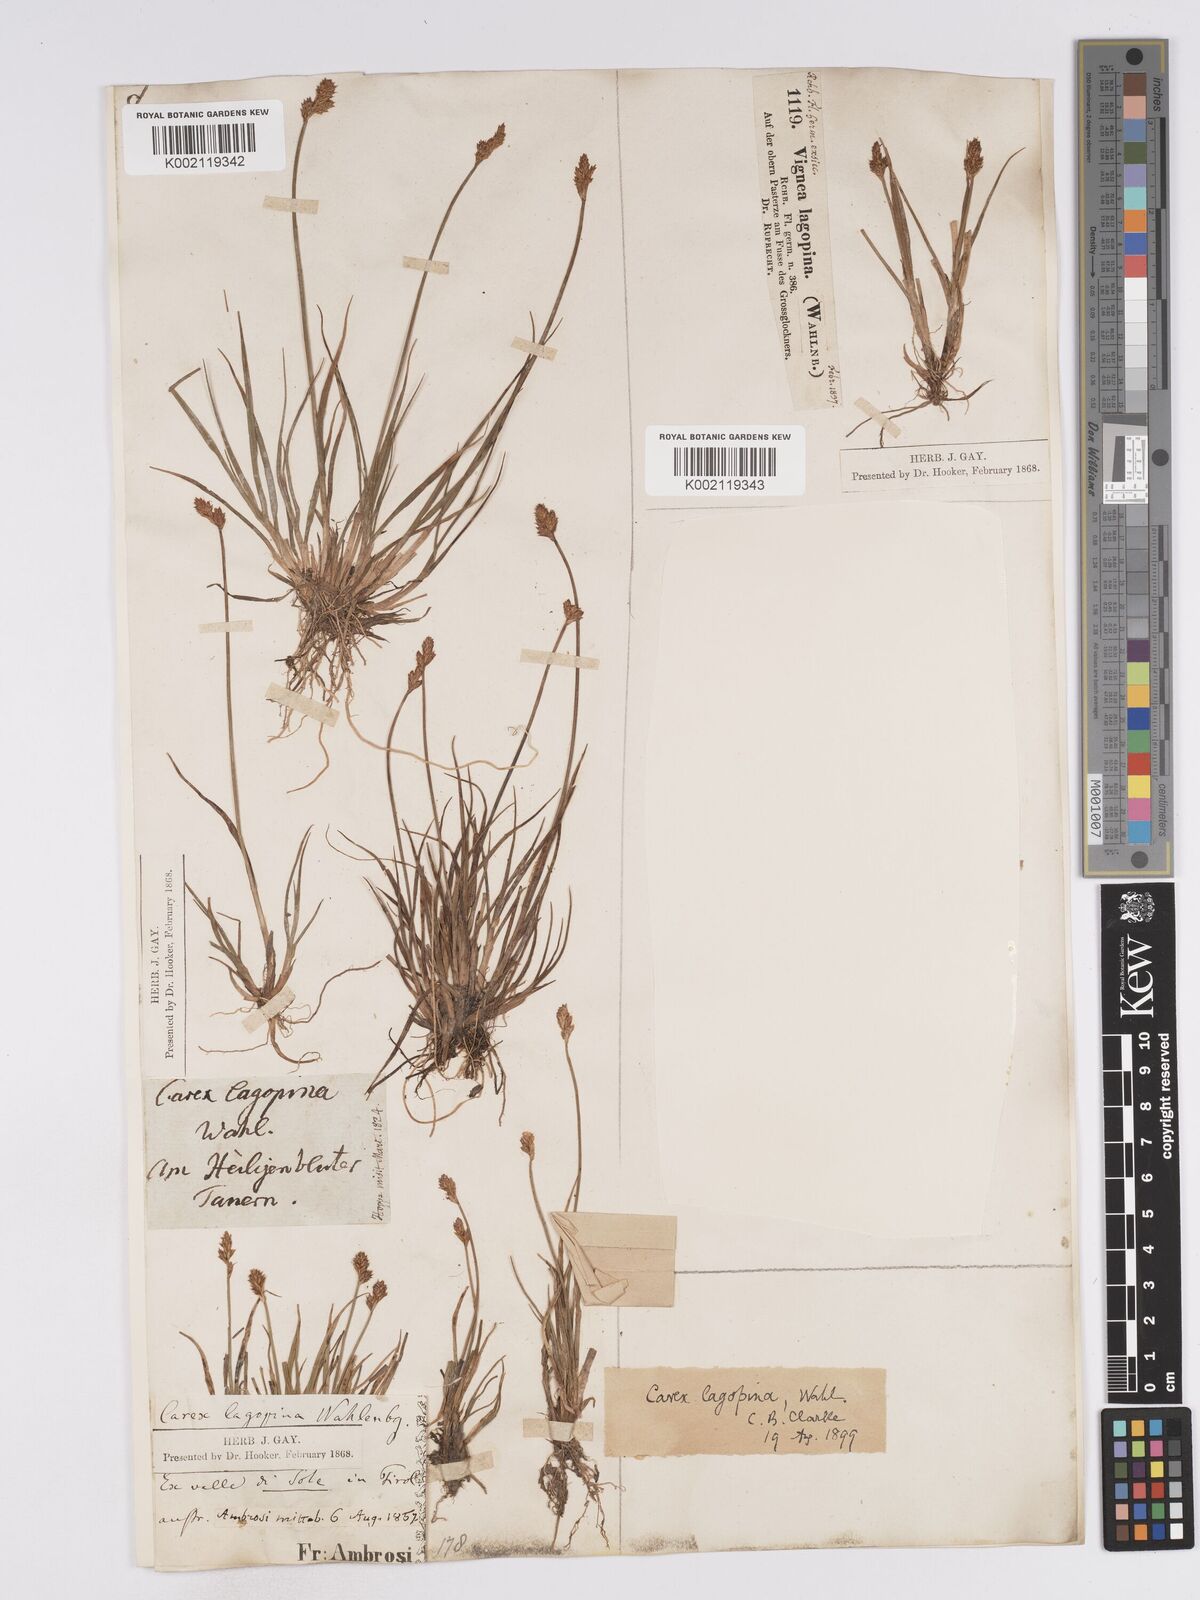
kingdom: Plantae
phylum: Tracheophyta
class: Liliopsida
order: Poales
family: Cyperaceae
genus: Carex
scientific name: Carex lachenalii
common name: Hare's-foot sedge
